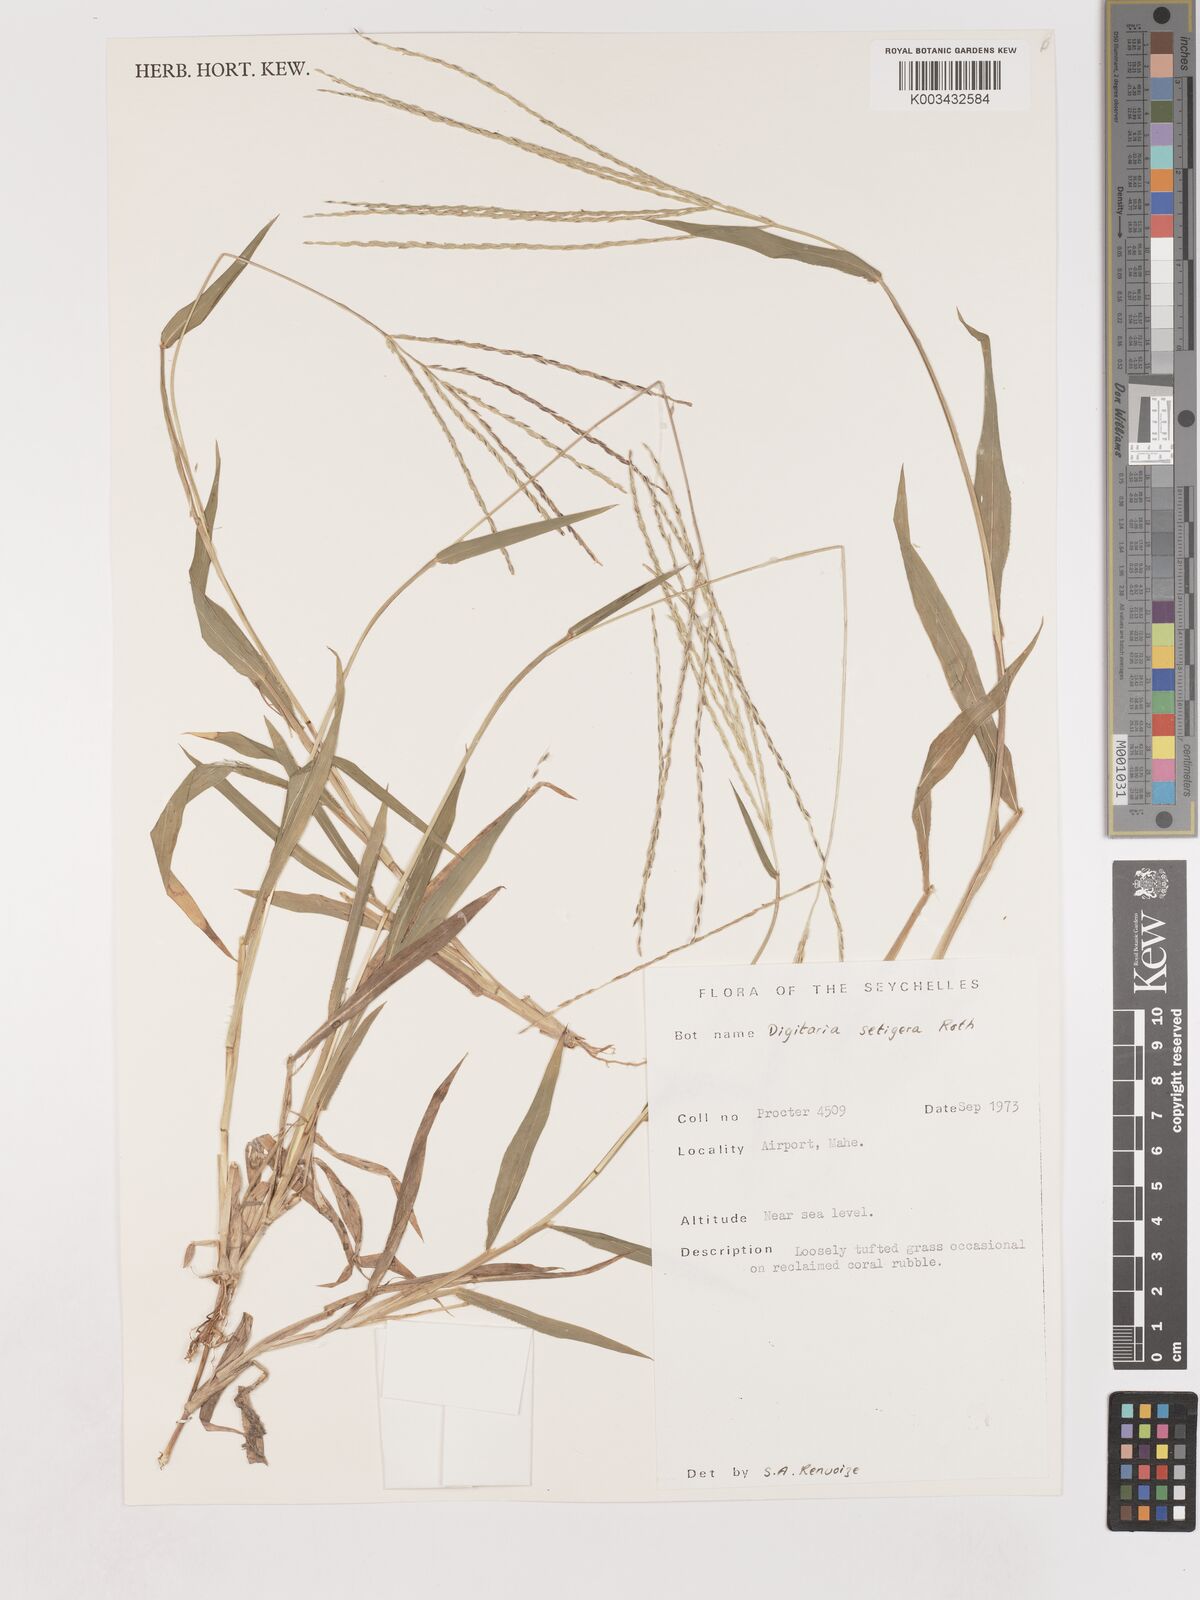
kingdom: Plantae
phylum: Tracheophyta
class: Liliopsida
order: Poales
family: Poaceae
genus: Digitaria
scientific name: Digitaria setigera
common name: East indian crabgrass
